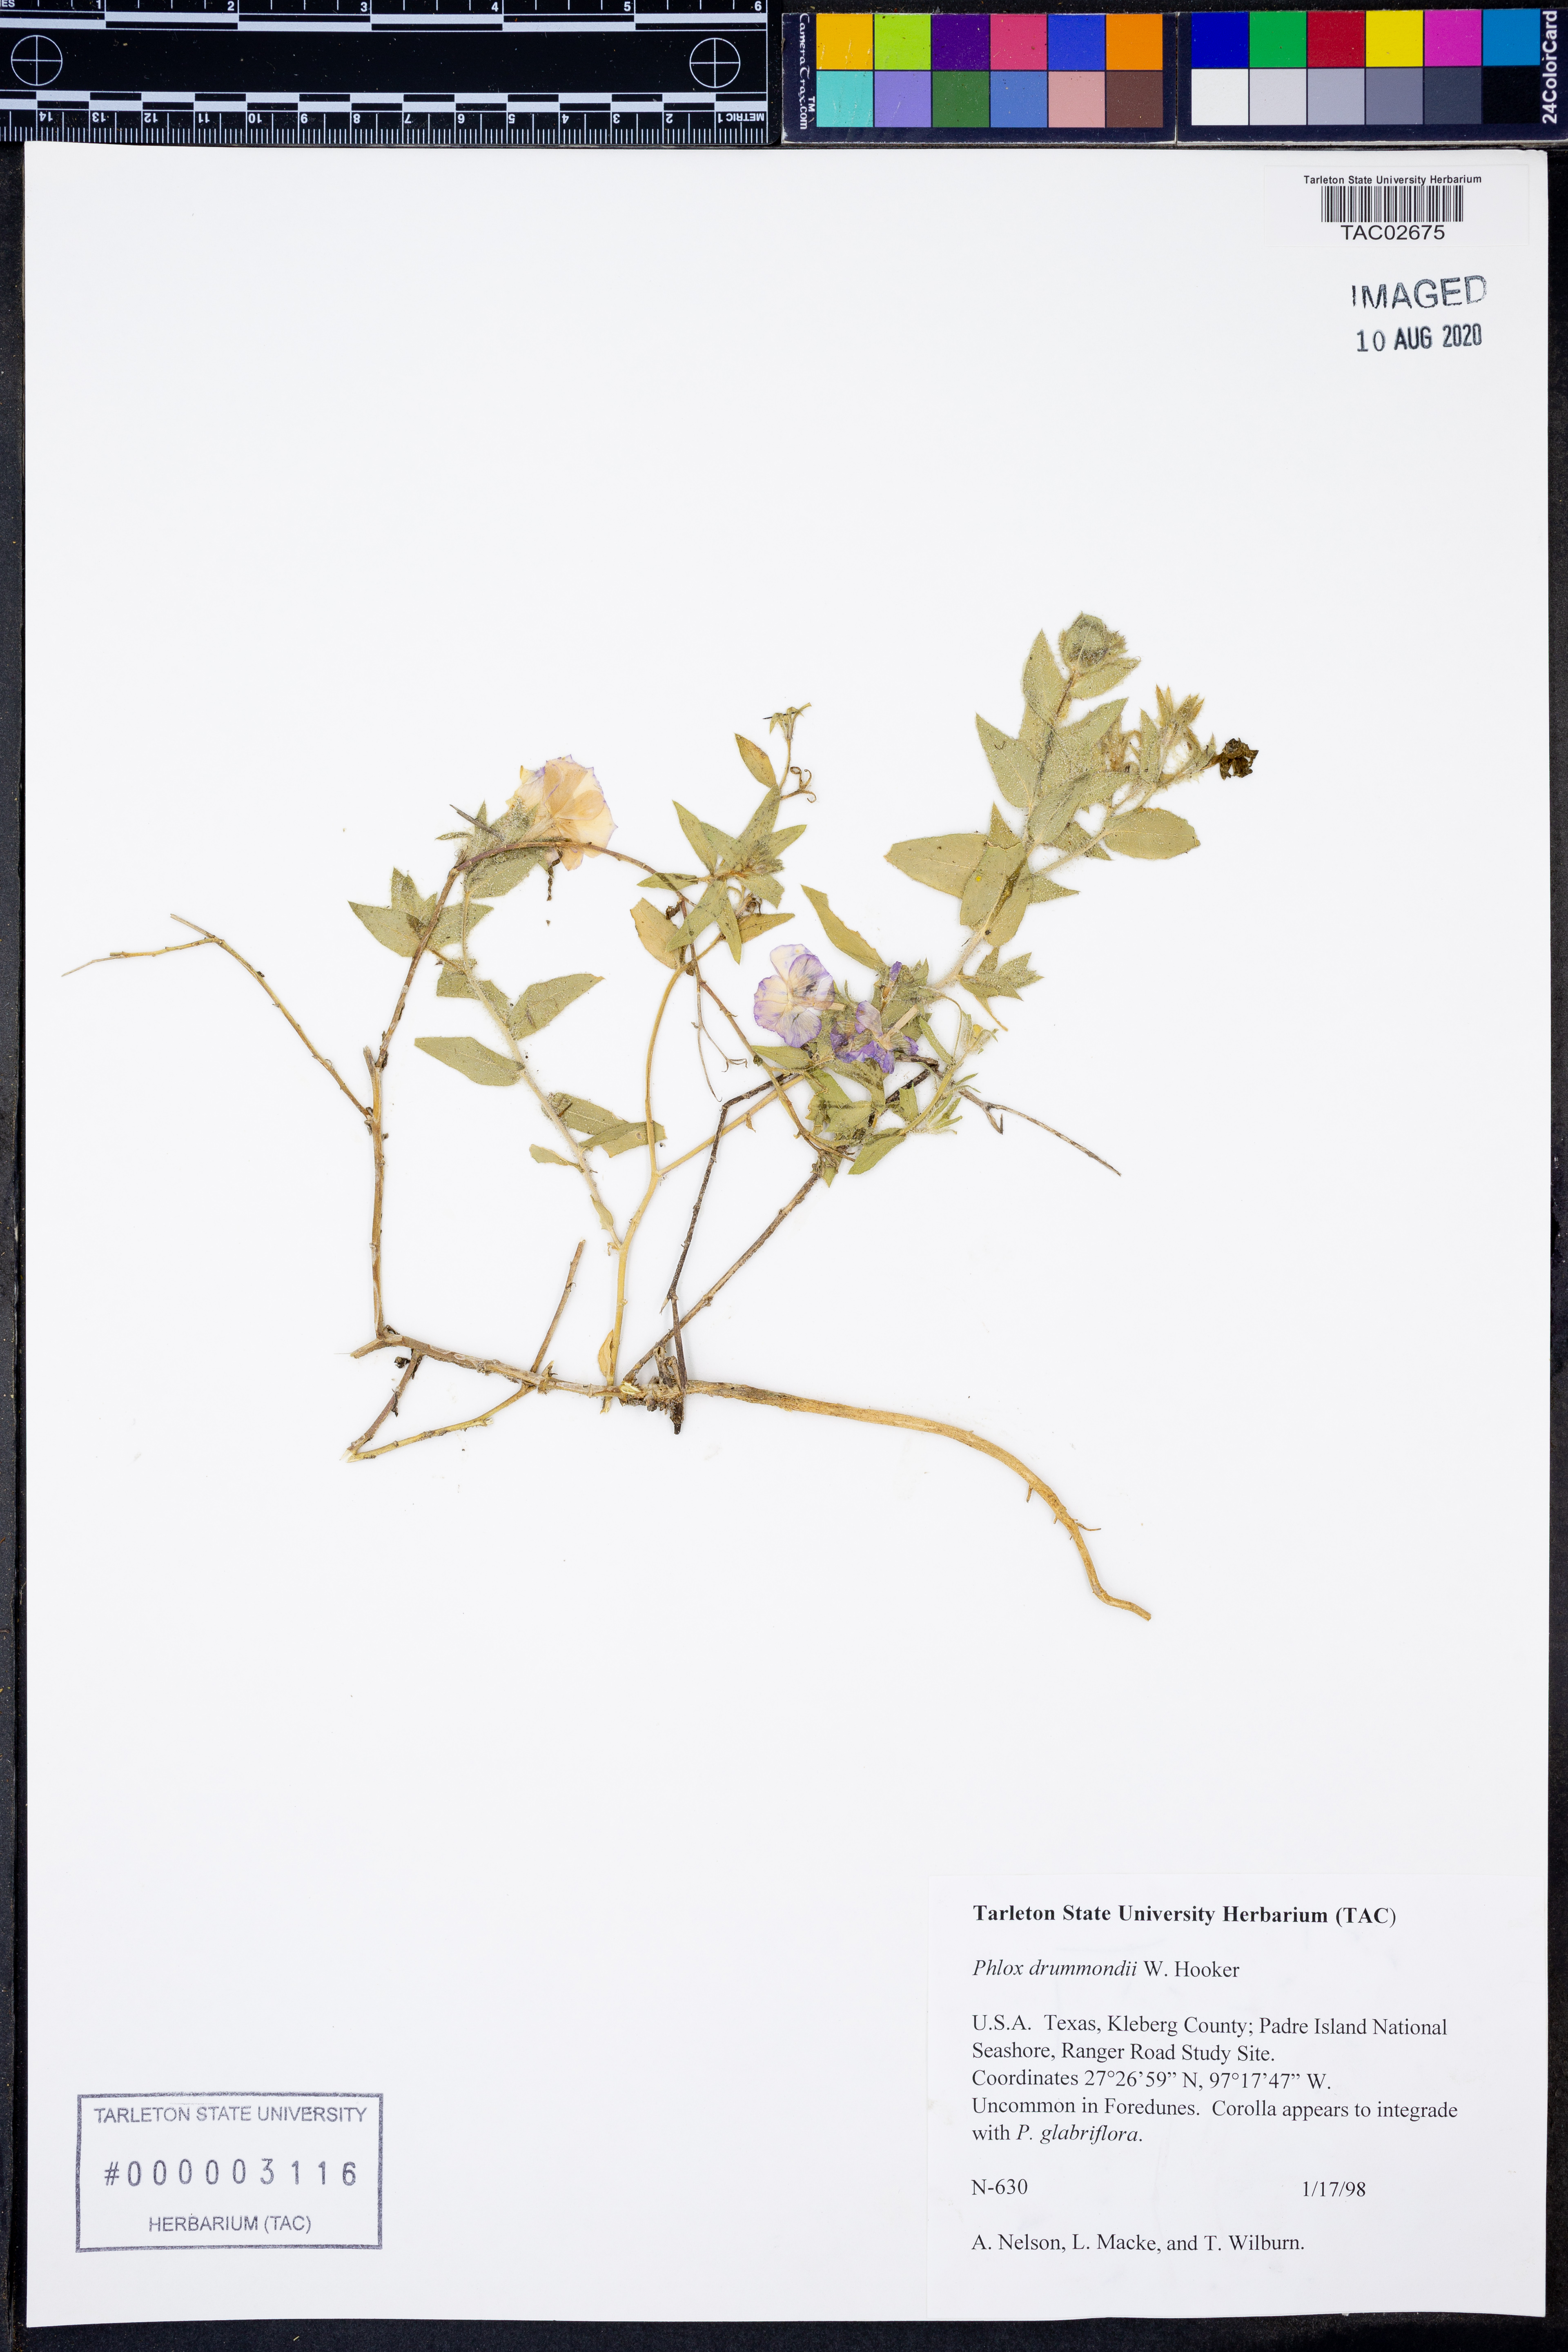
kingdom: Plantae
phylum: Tracheophyta
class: Magnoliopsida
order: Ericales
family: Polemoniaceae
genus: Phlox
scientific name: Phlox drummondii
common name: Drummond's phlox
